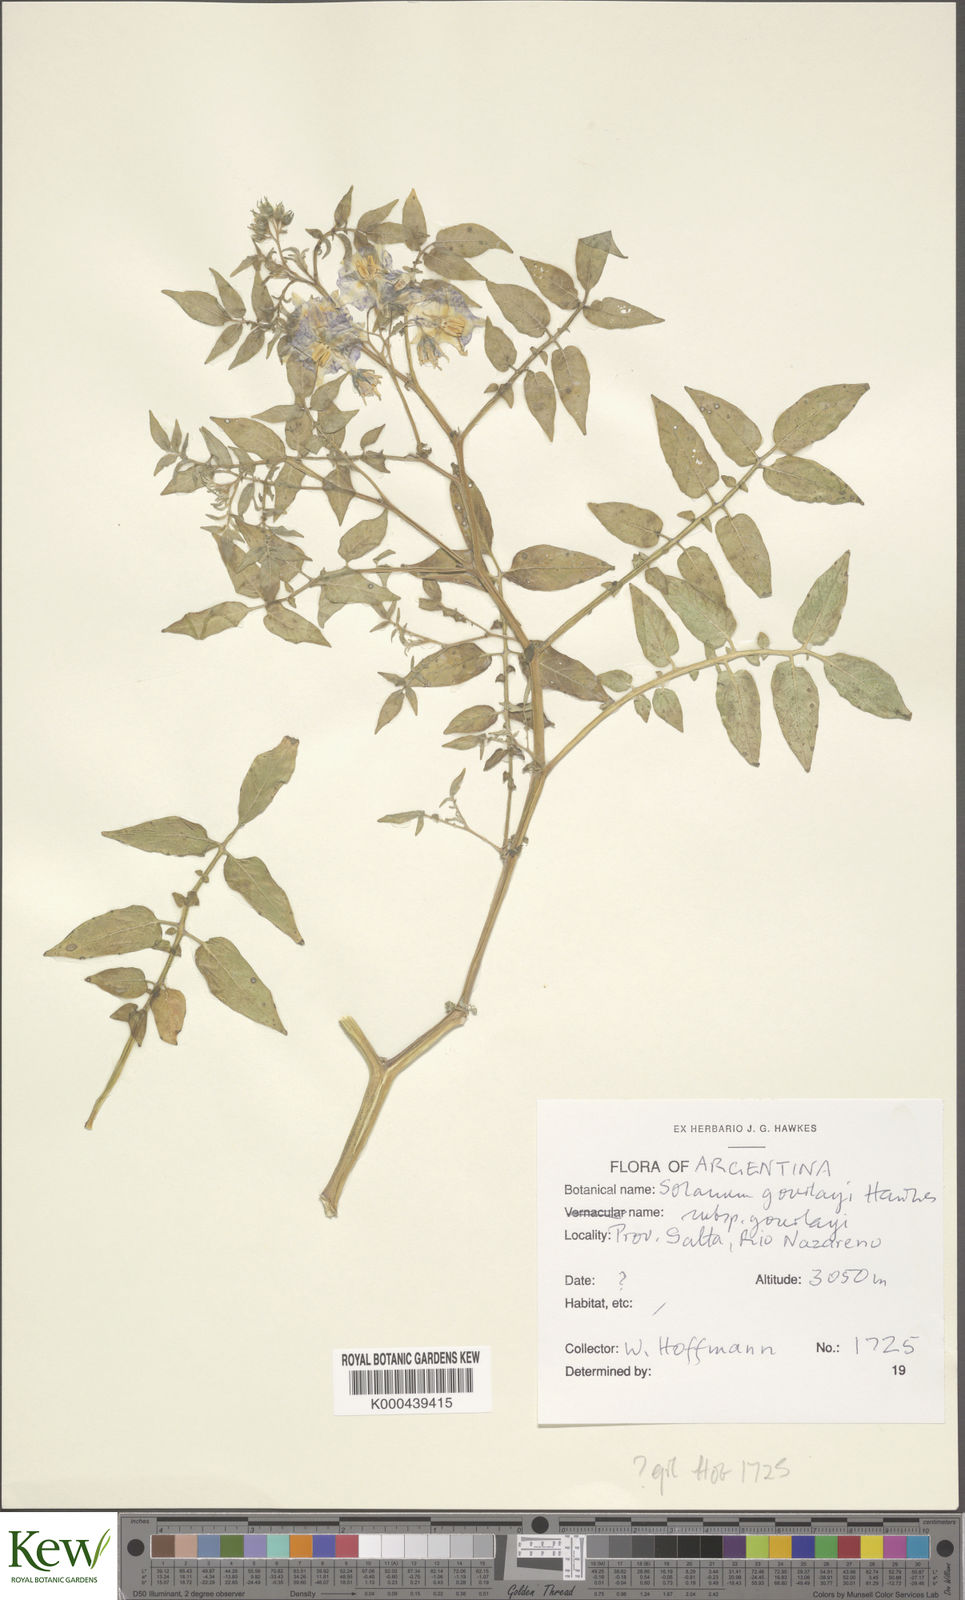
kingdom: Plantae
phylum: Tracheophyta
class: Magnoliopsida
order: Solanales
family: Solanaceae
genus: Solanum
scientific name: Solanum brevicaule
